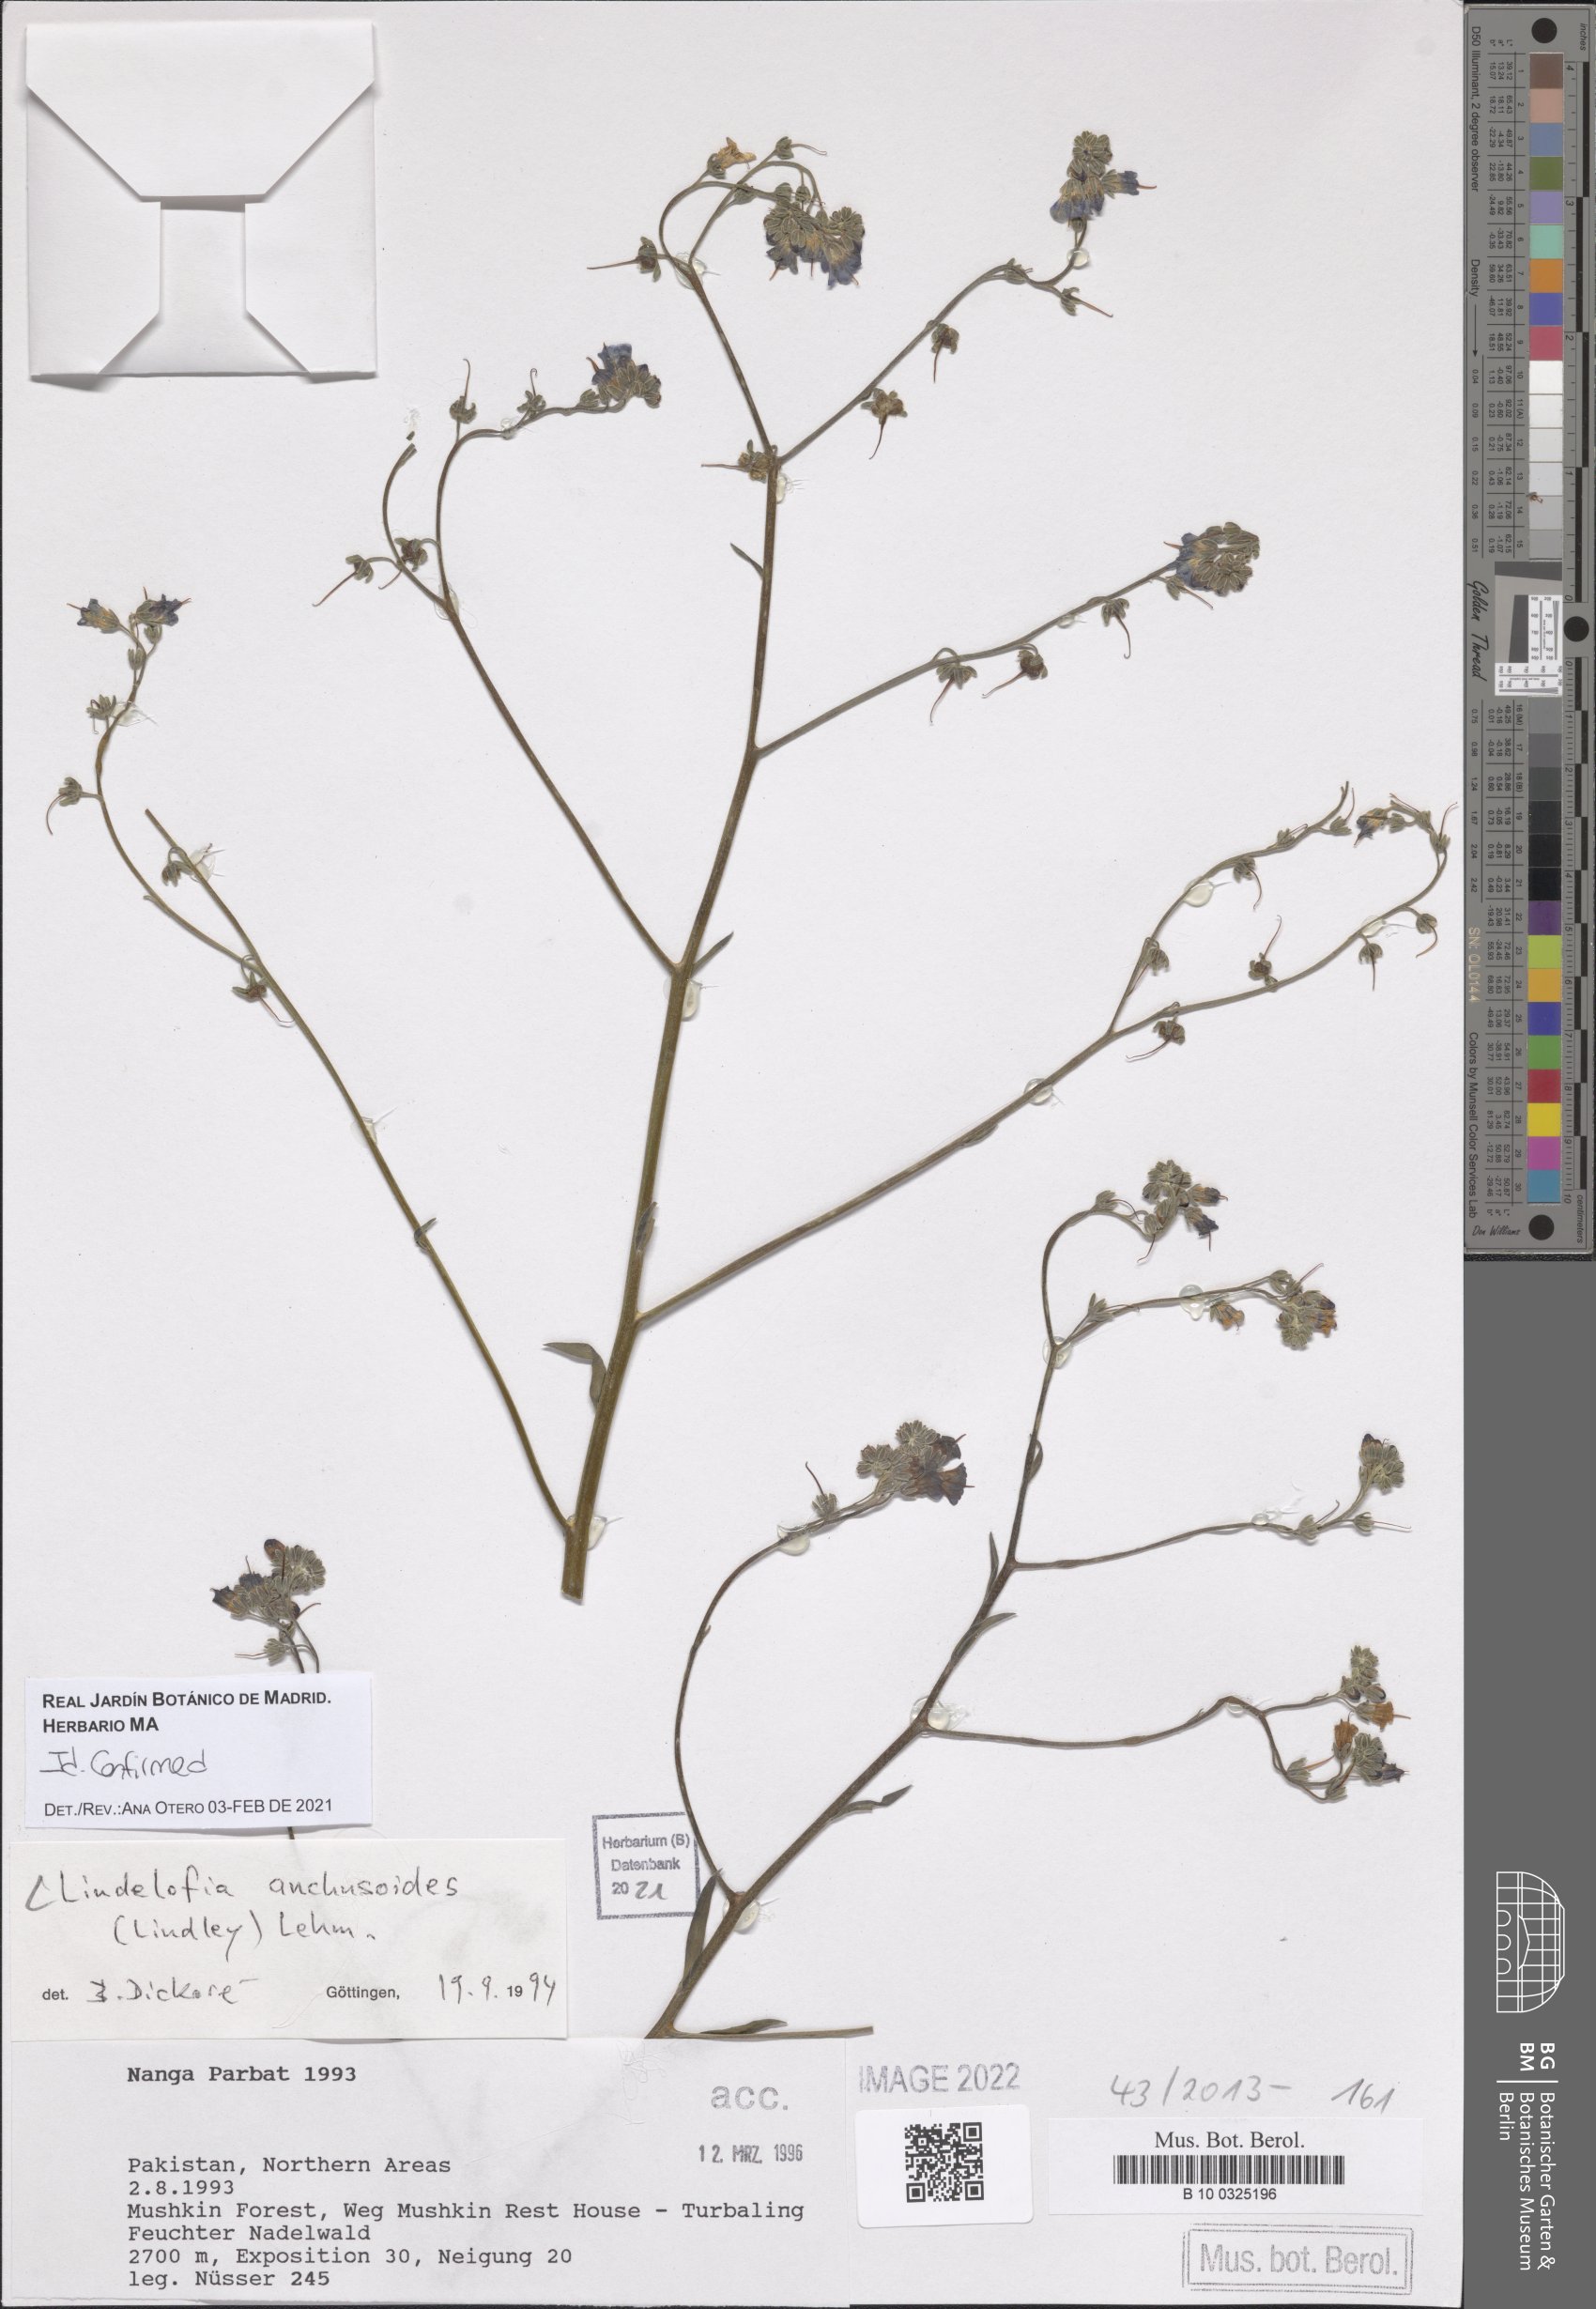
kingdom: Plantae
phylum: Tracheophyta
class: Magnoliopsida
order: Boraginales
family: Boraginaceae
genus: Lindelofia
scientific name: Lindelofia anchusoides
